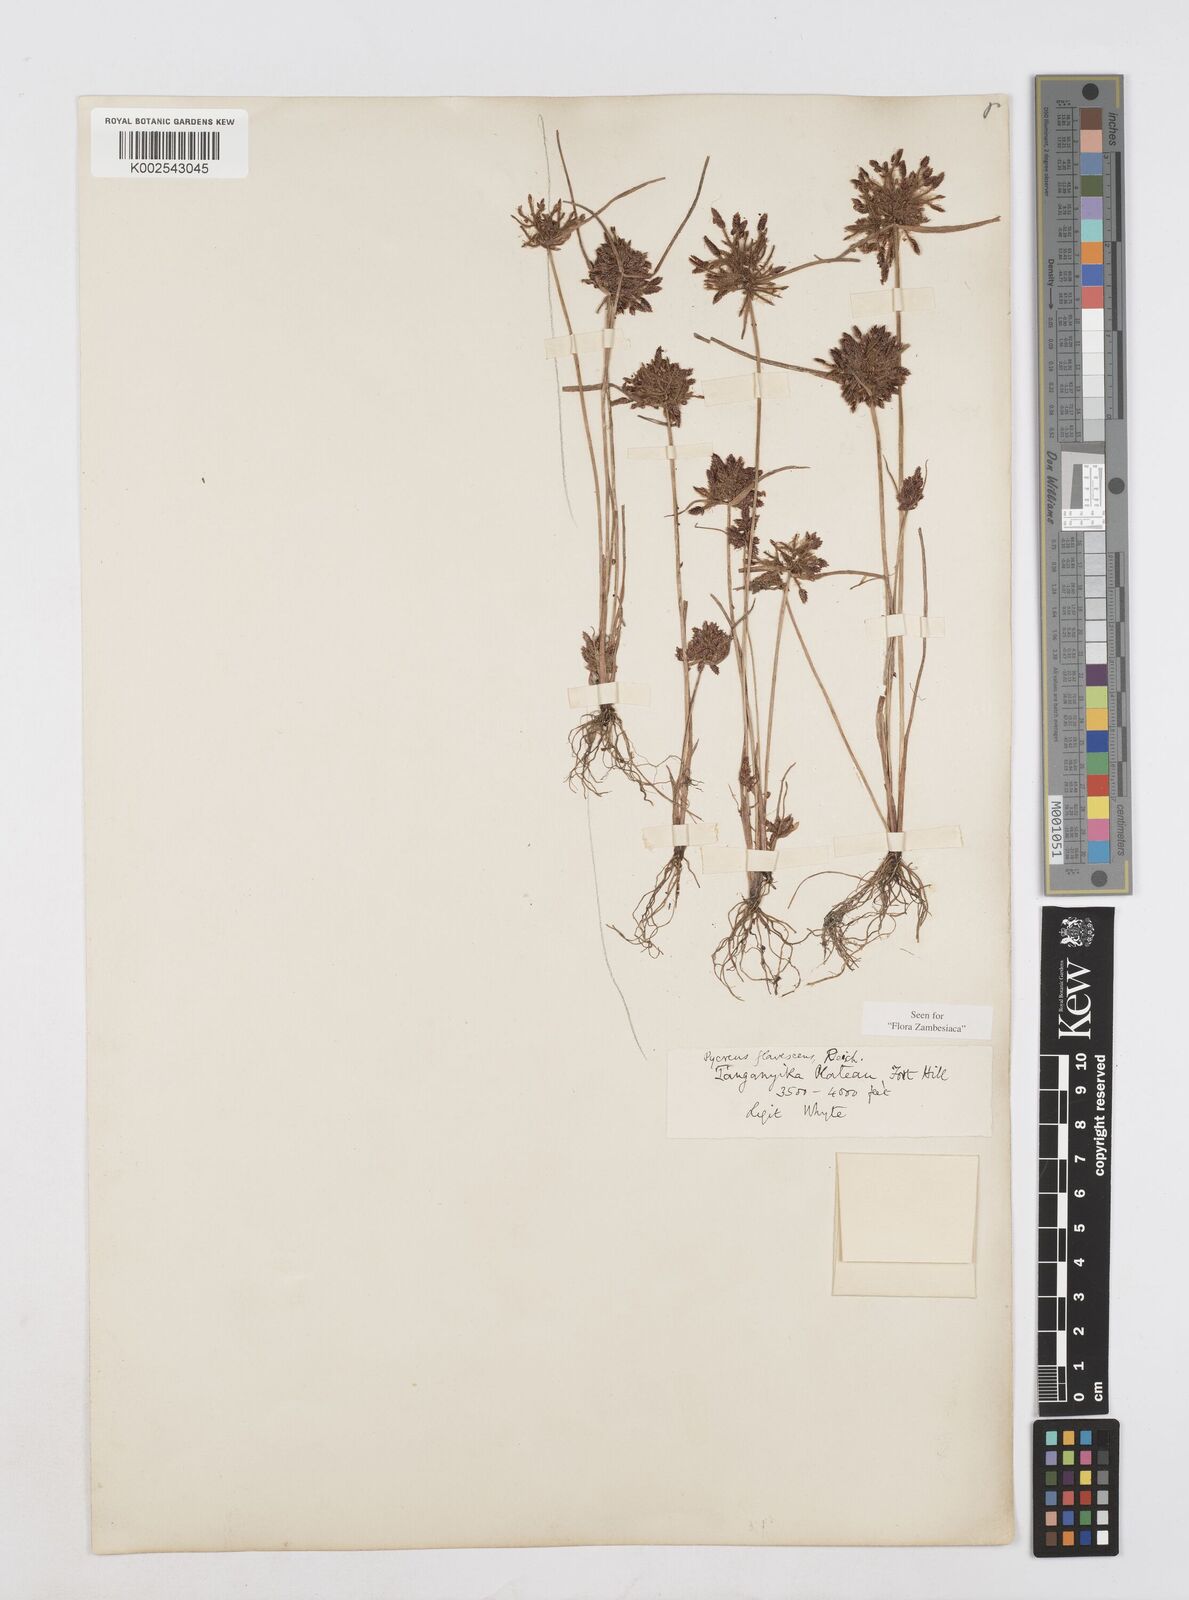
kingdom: Plantae
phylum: Tracheophyta
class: Liliopsida
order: Poales
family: Cyperaceae
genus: Cyperus
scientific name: Cyperus flavescens
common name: Yellow galingale
